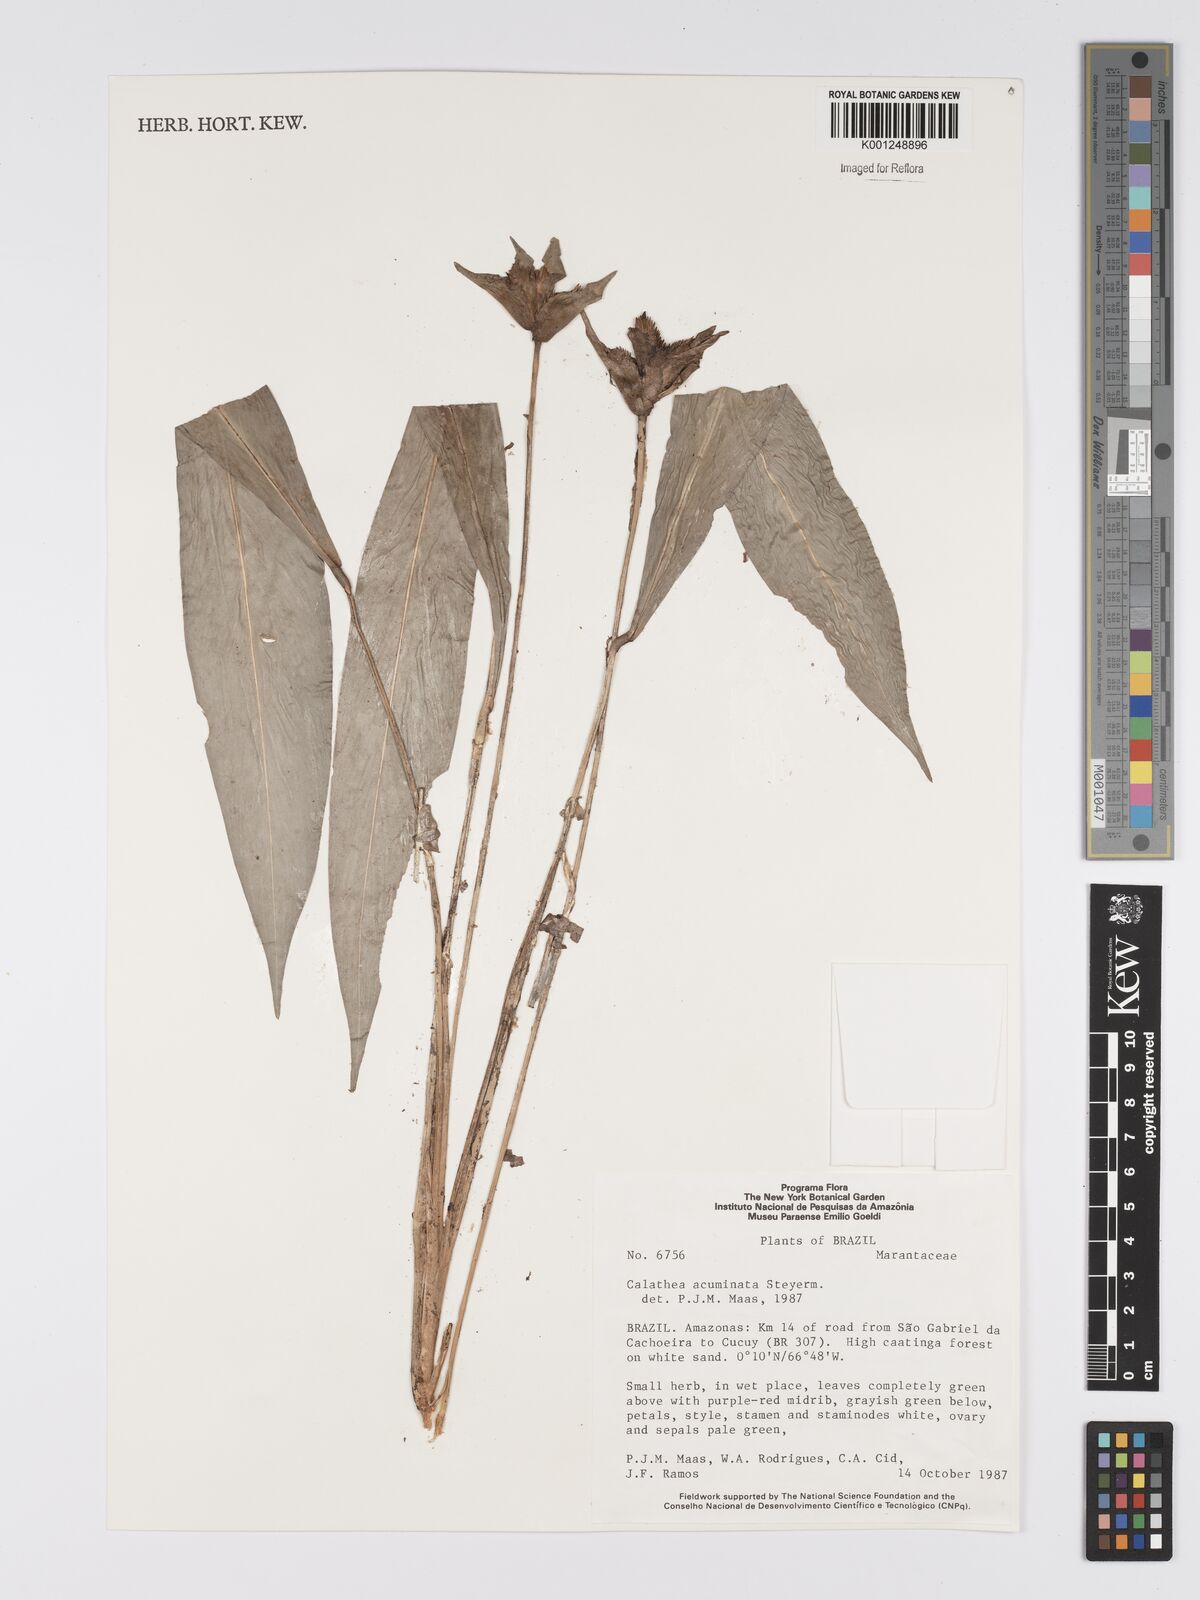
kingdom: Plantae
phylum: Tracheophyta
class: Liliopsida
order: Zingiberales
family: Marantaceae
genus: Goeppertia
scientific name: Goeppertia acuminata
